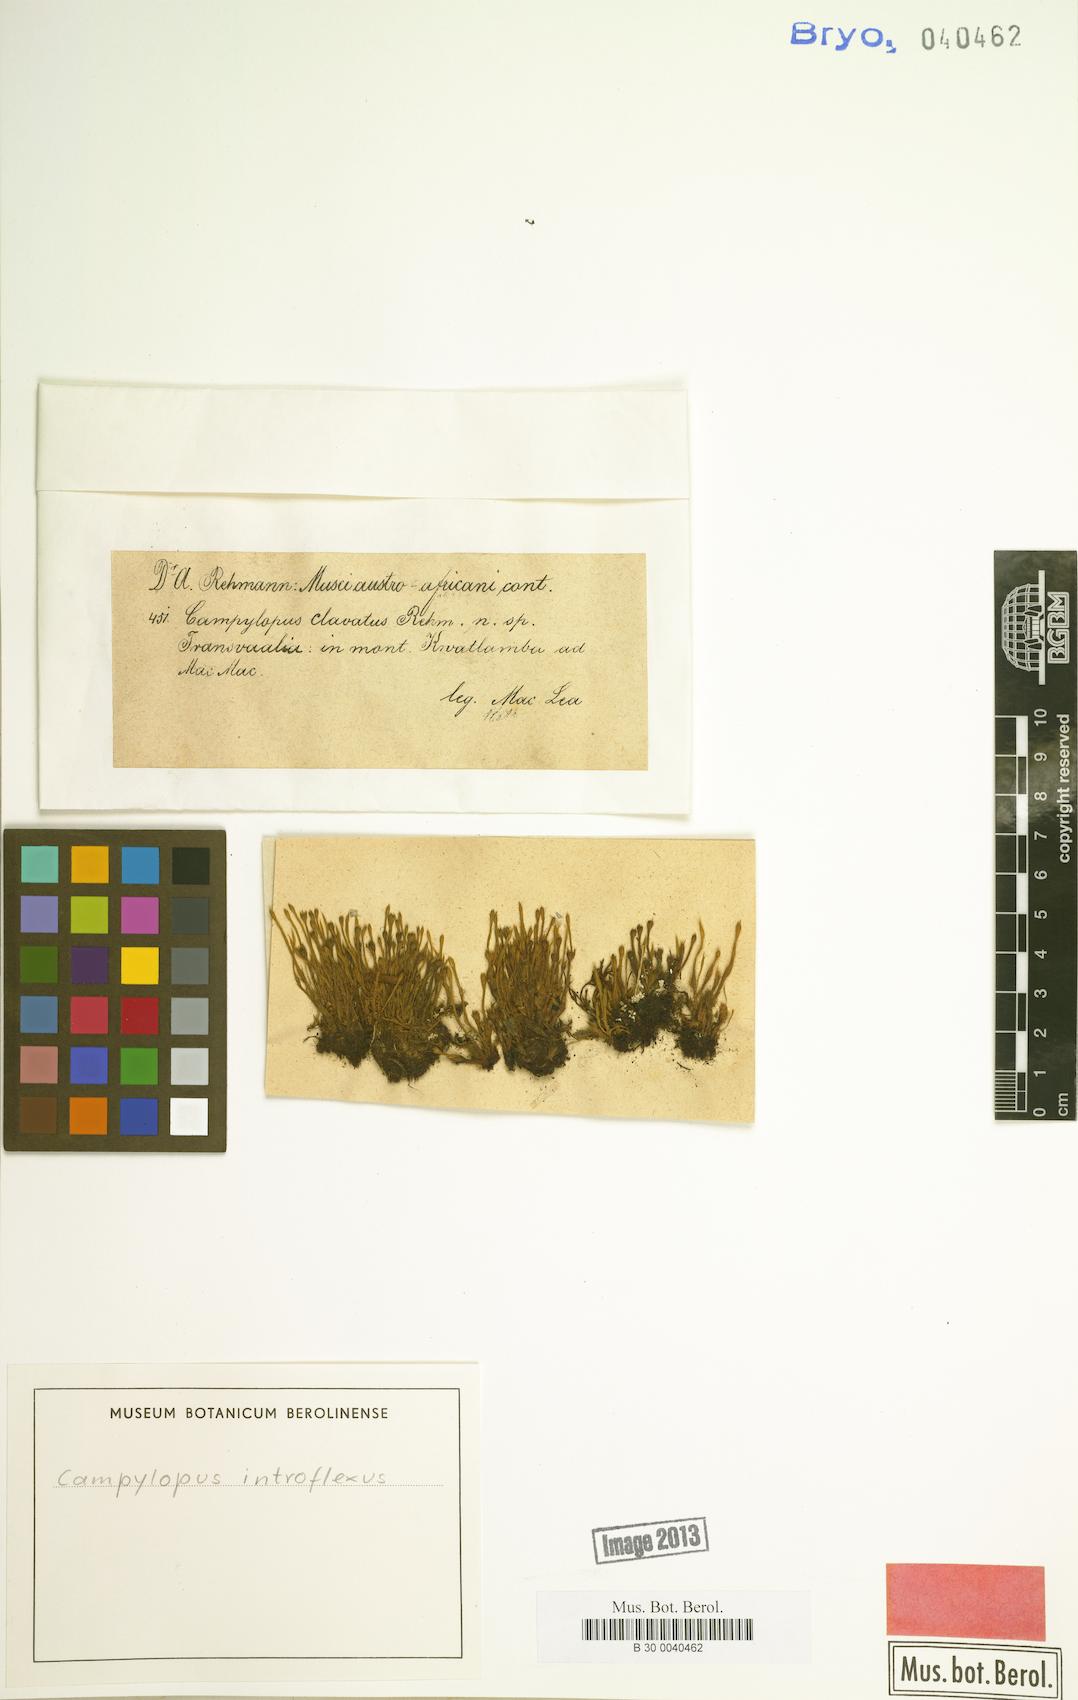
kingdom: Plantae
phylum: Bryophyta
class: Bryopsida
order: Dicranales
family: Leucobryaceae
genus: Campylopus
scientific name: Campylopus introflexus
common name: Heath star moss
